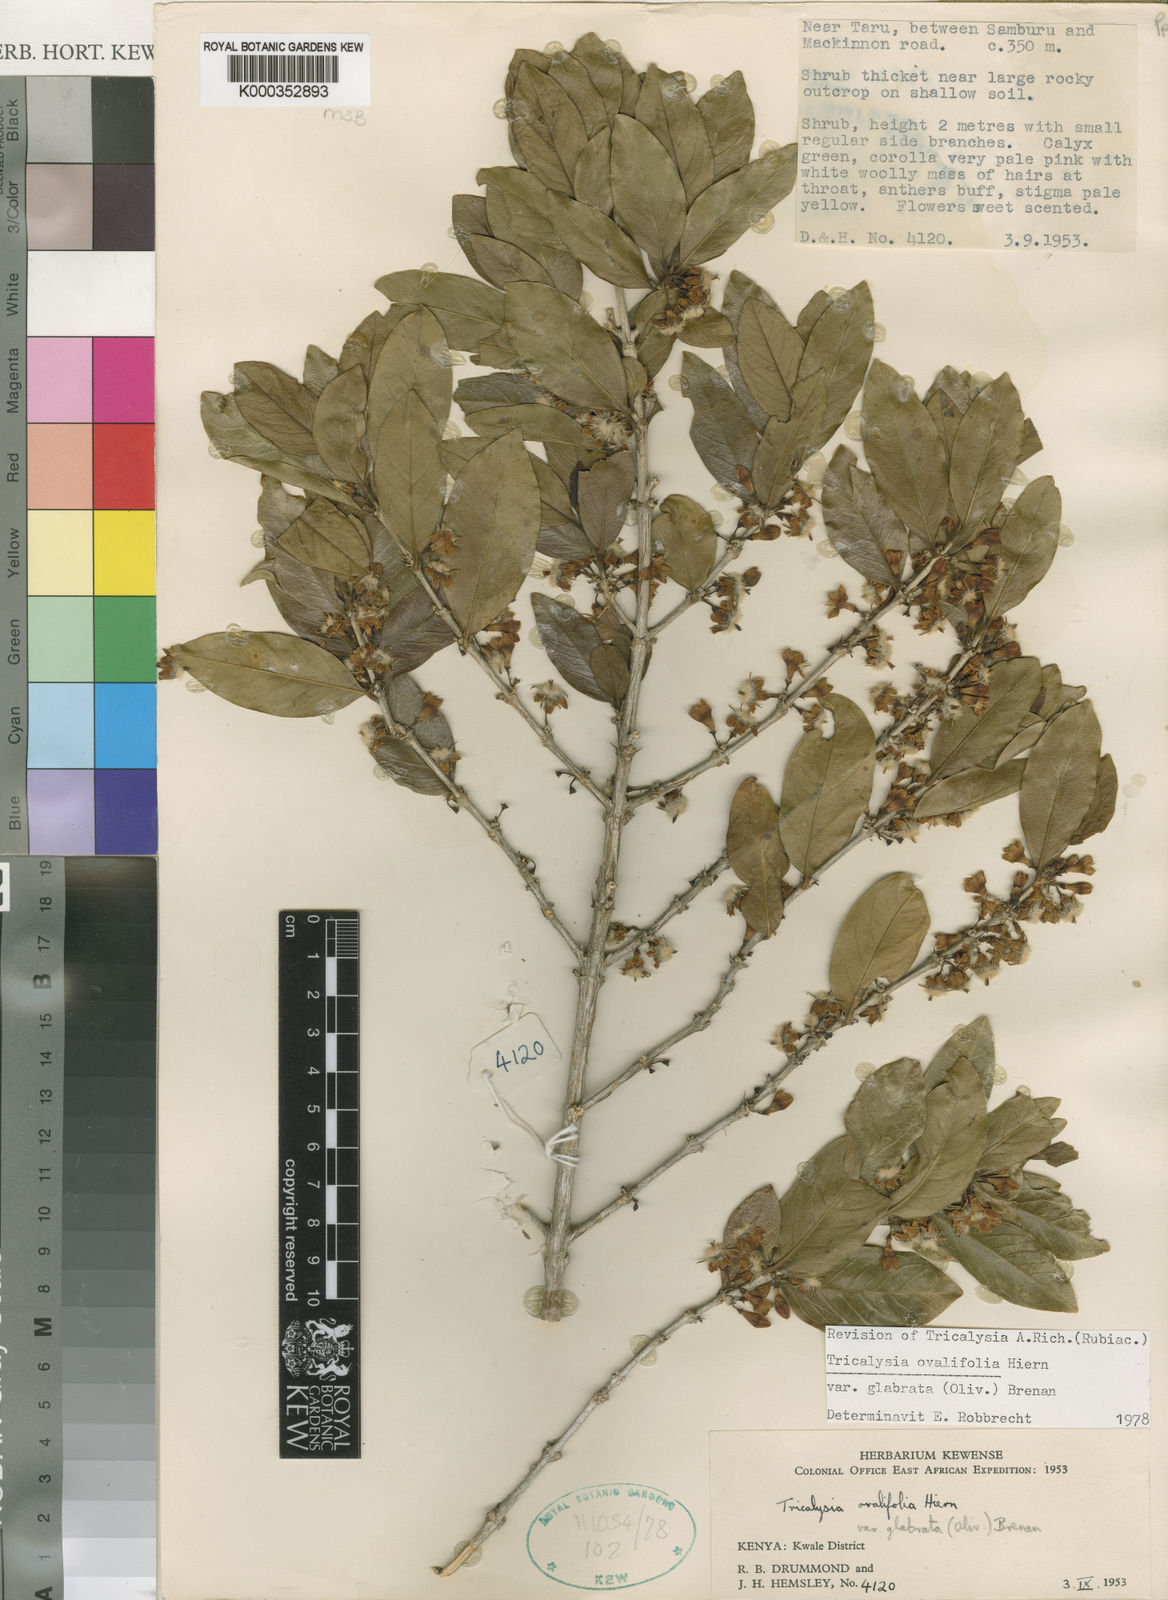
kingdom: Plantae
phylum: Tracheophyta
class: Magnoliopsida
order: Gentianales
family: Rubiaceae
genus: Empogona
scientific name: Empogona ovalifolia
